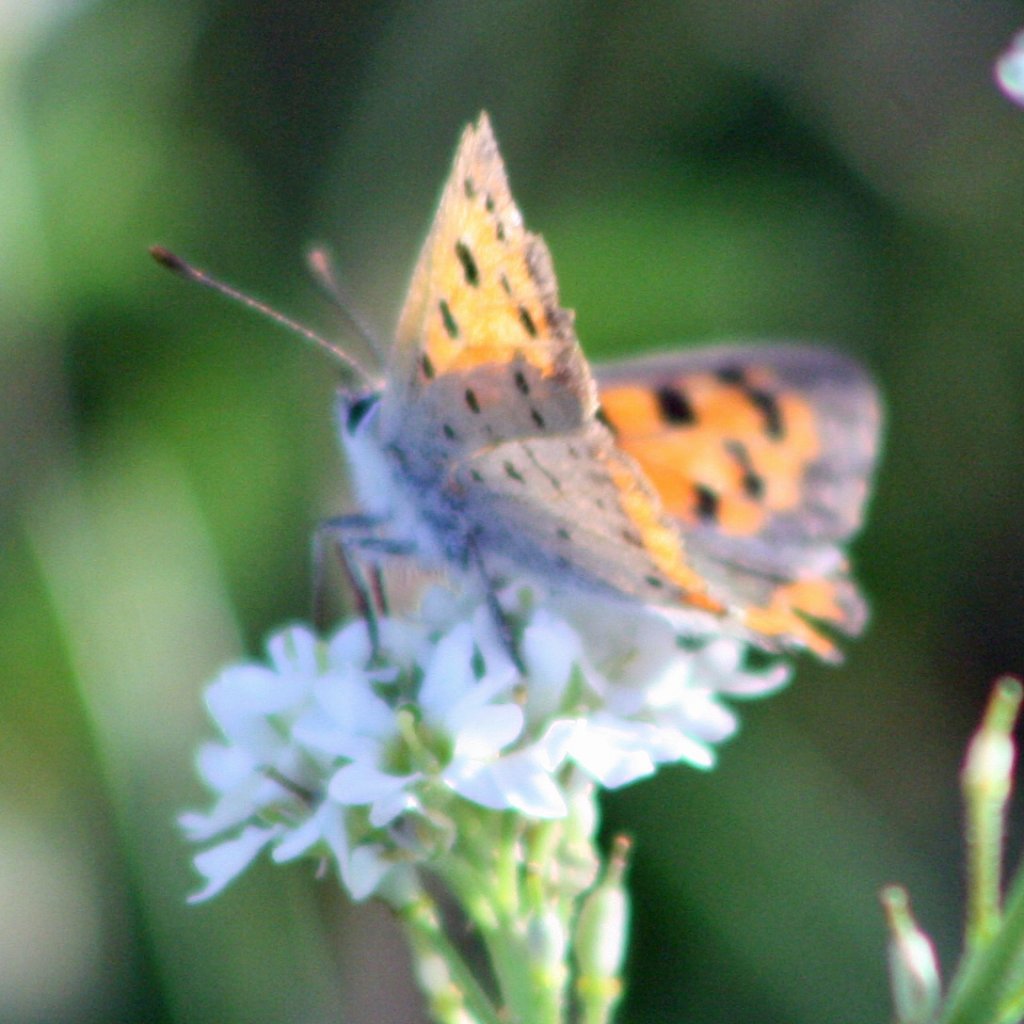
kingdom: Animalia
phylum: Arthropoda
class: Insecta
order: Lepidoptera
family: Lycaenidae
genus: Lycaena
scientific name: Lycaena phlaeas
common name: American Copper
